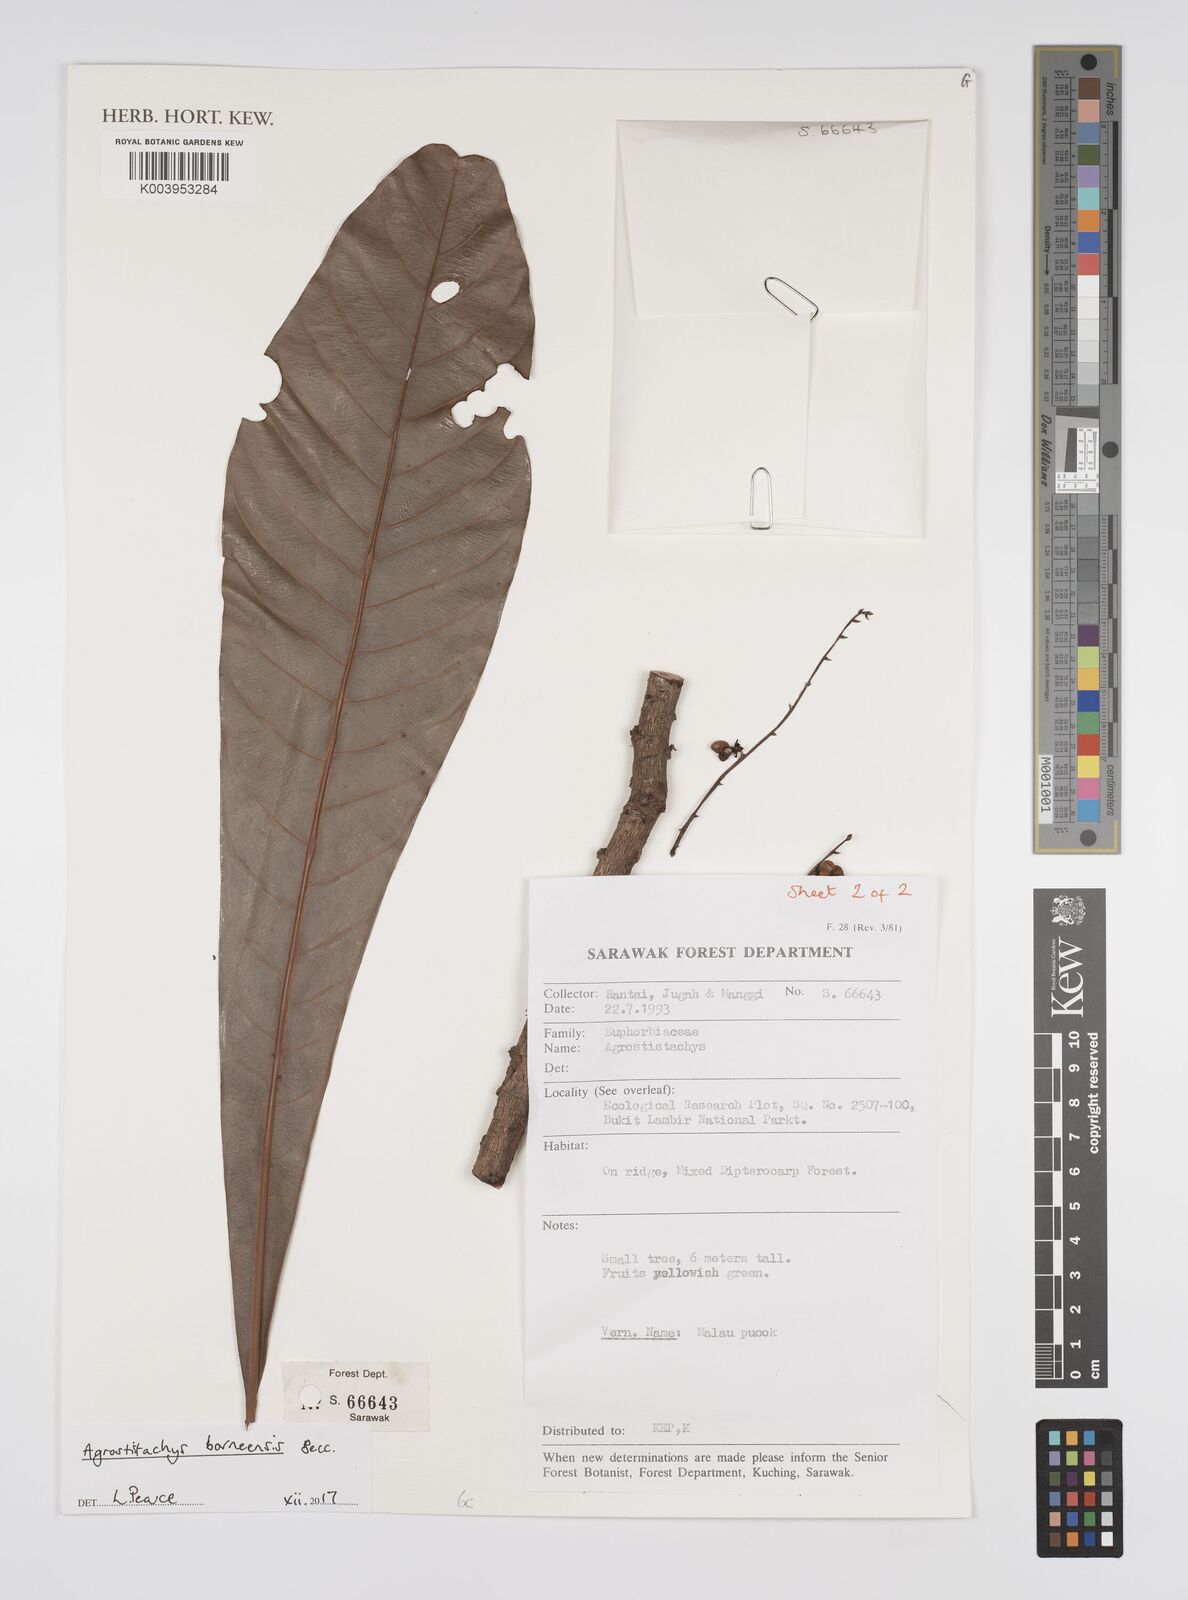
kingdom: Plantae
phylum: Tracheophyta
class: Magnoliopsida
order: Malpighiales
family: Euphorbiaceae
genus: Agrostistachys
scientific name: Agrostistachys borneensis
